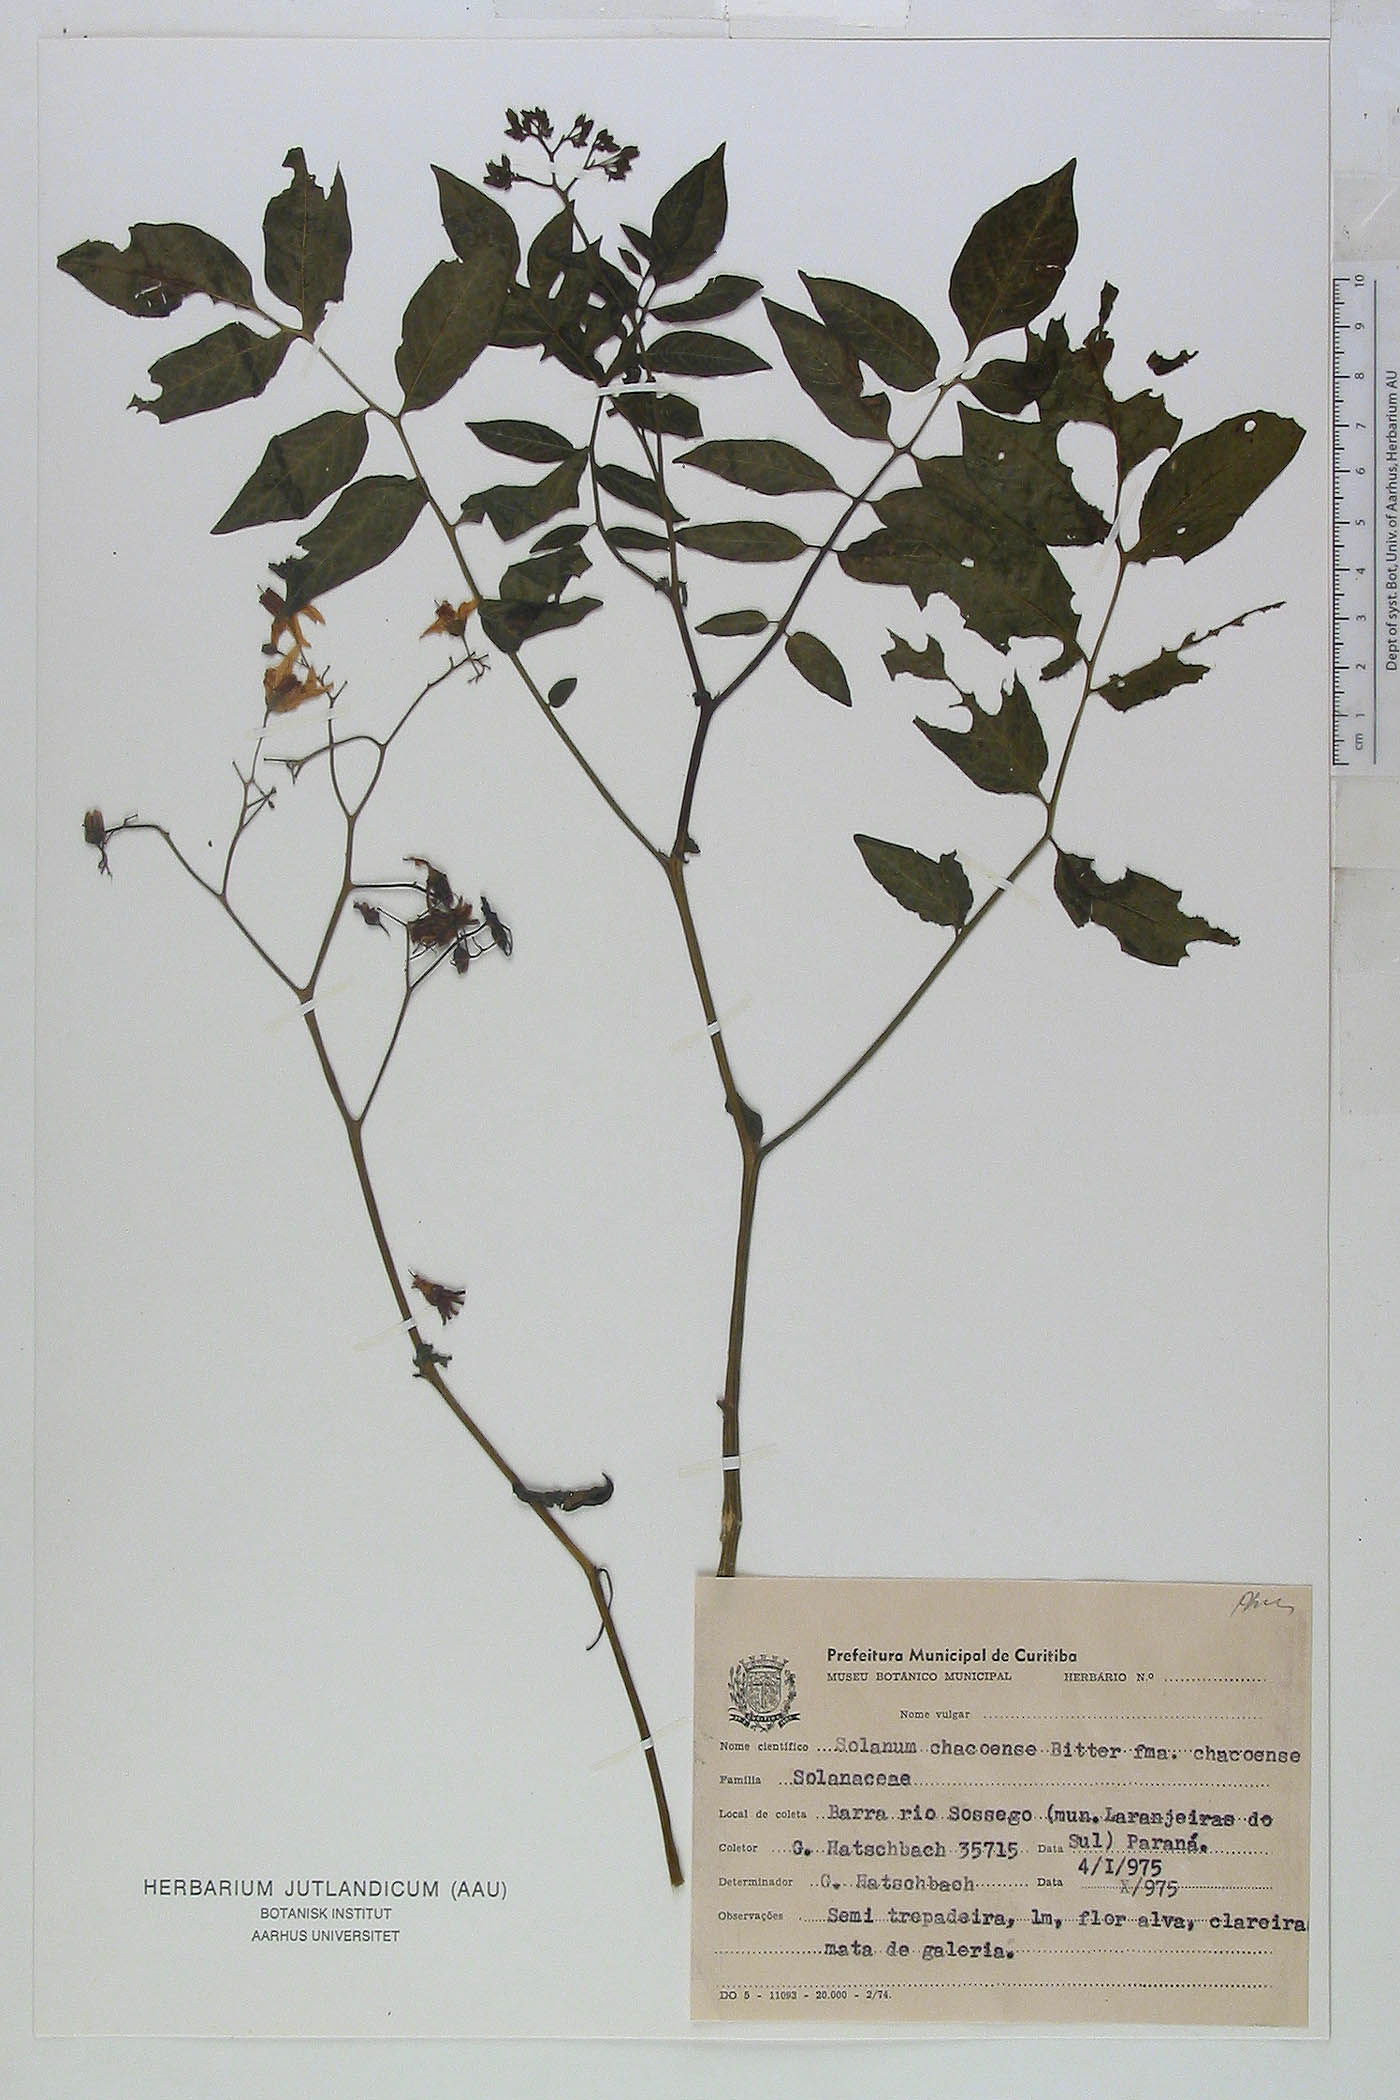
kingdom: Plantae
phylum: Tracheophyta
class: Magnoliopsida
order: Solanales
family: Solanaceae
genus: Solanum
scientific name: Solanum commersonii
